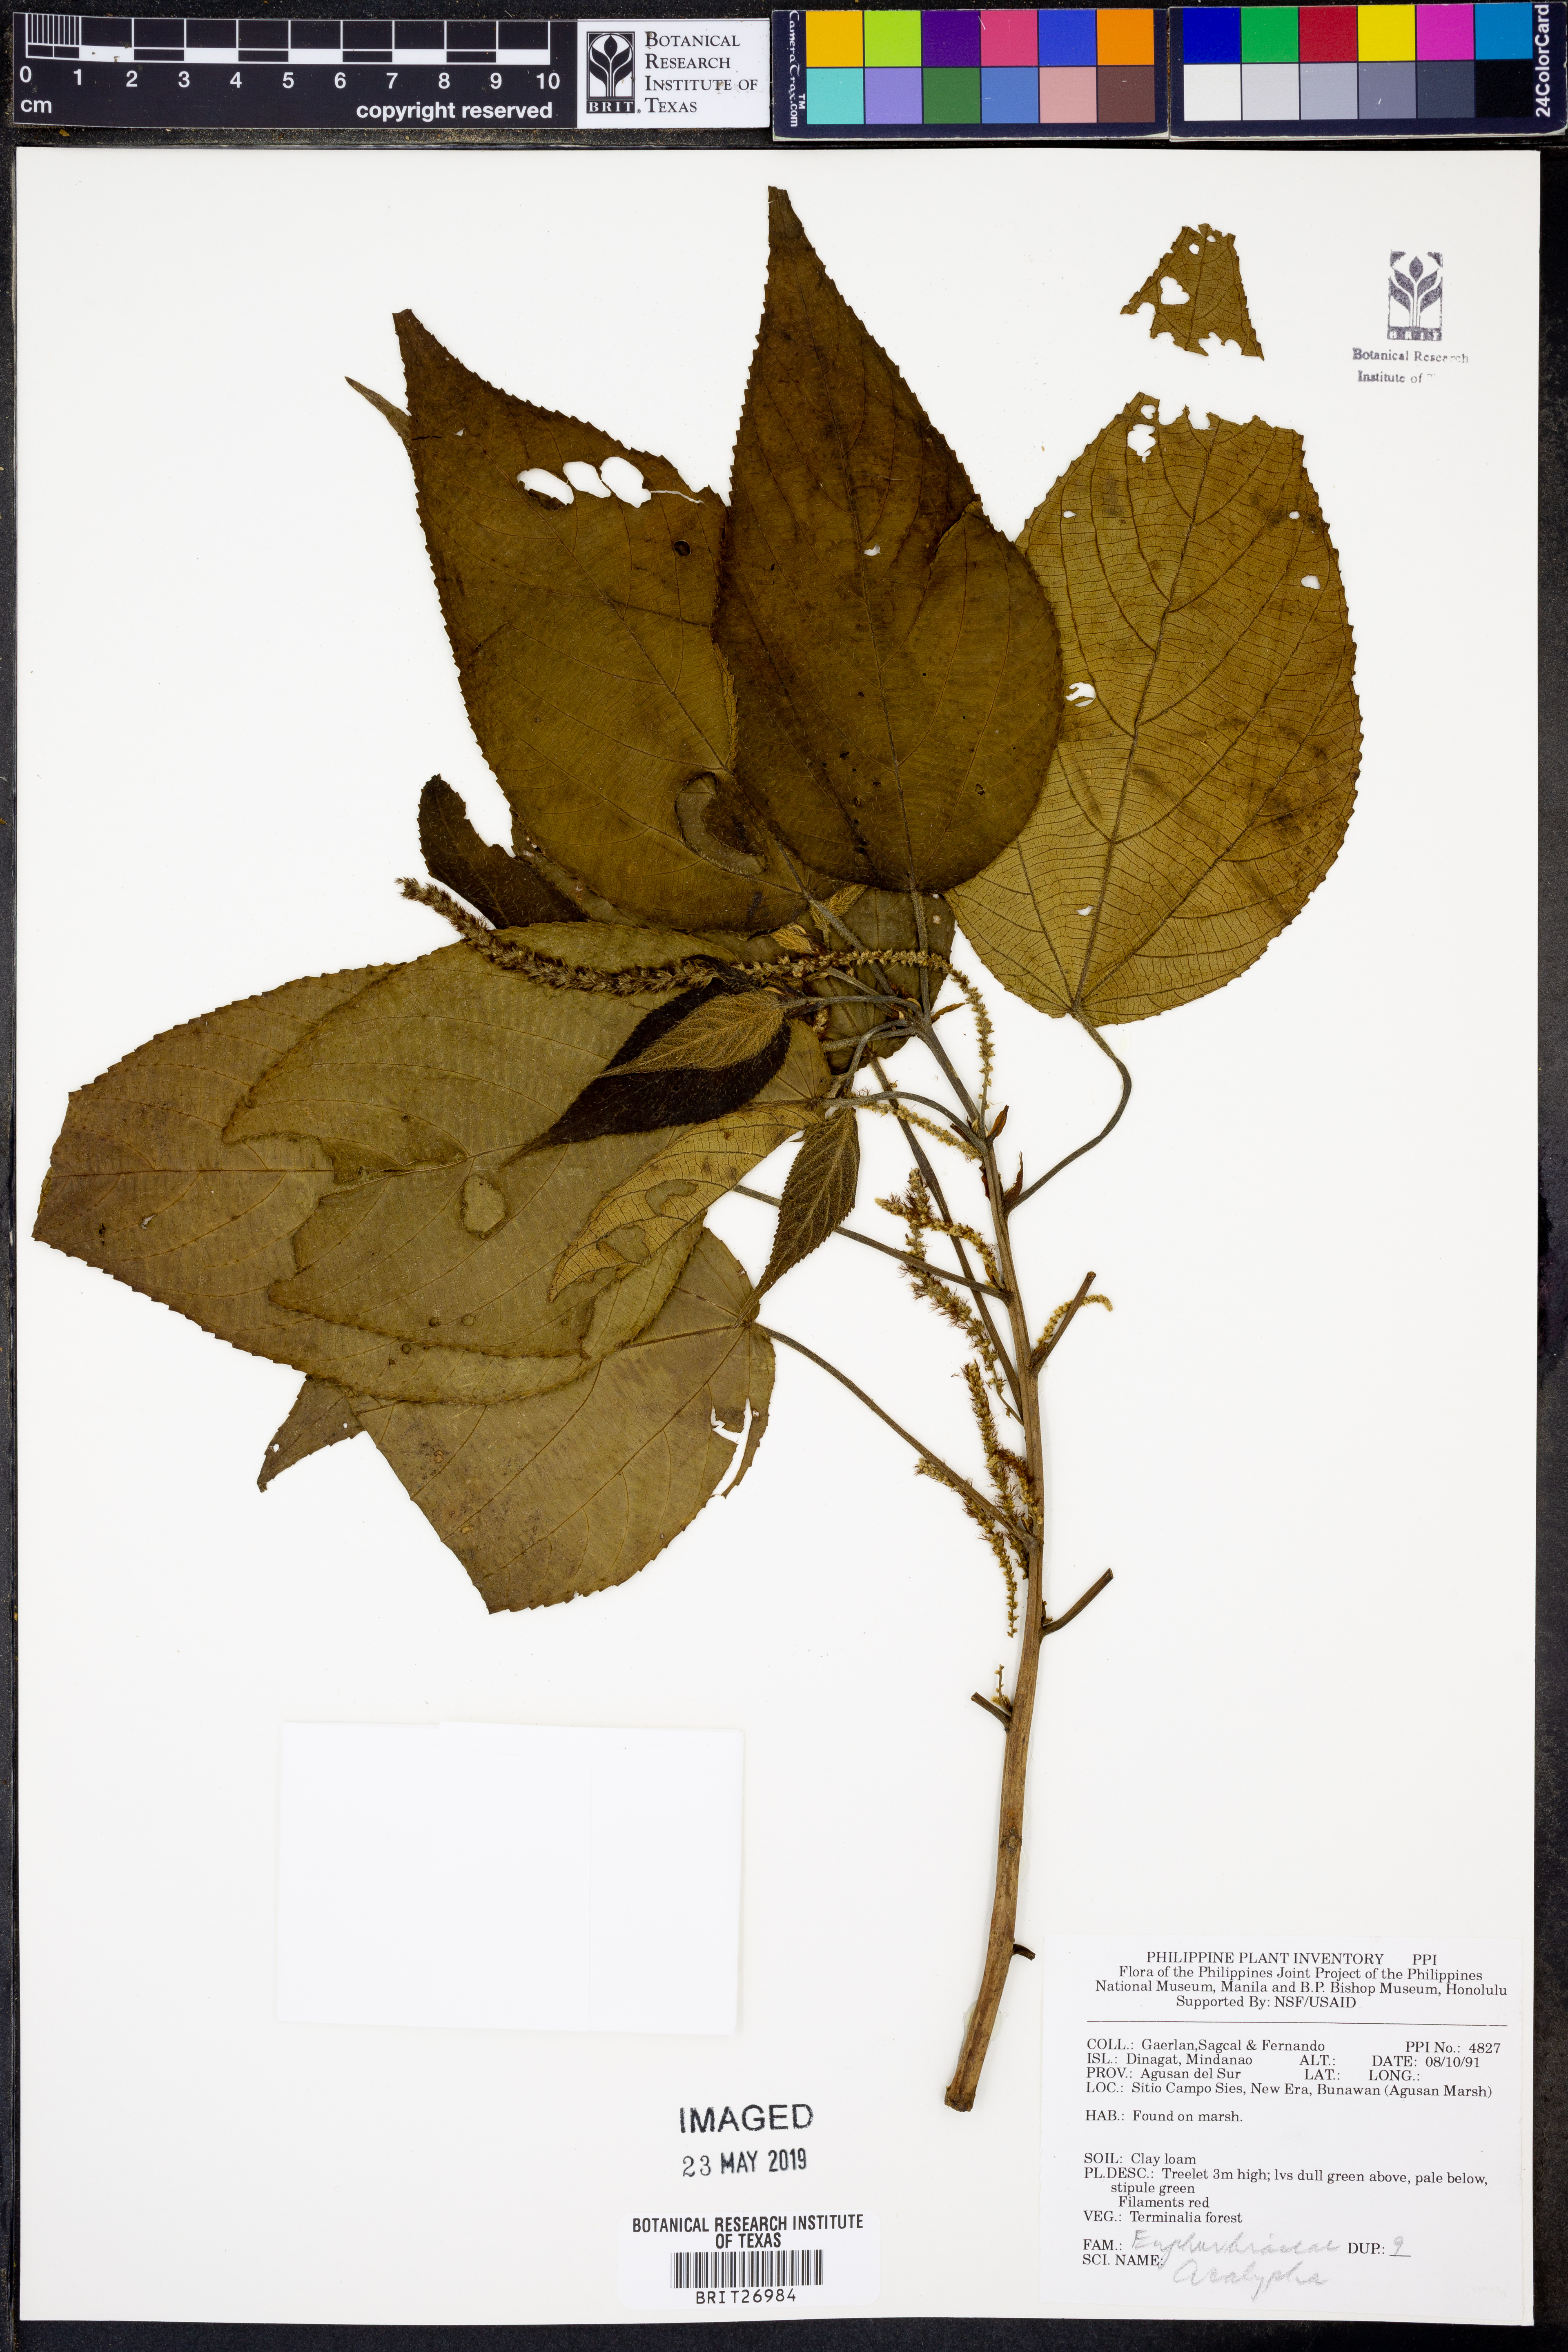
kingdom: Plantae
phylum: Tracheophyta
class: Magnoliopsida
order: Malpighiales
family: Euphorbiaceae
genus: Acalypha
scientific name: Acalypha
